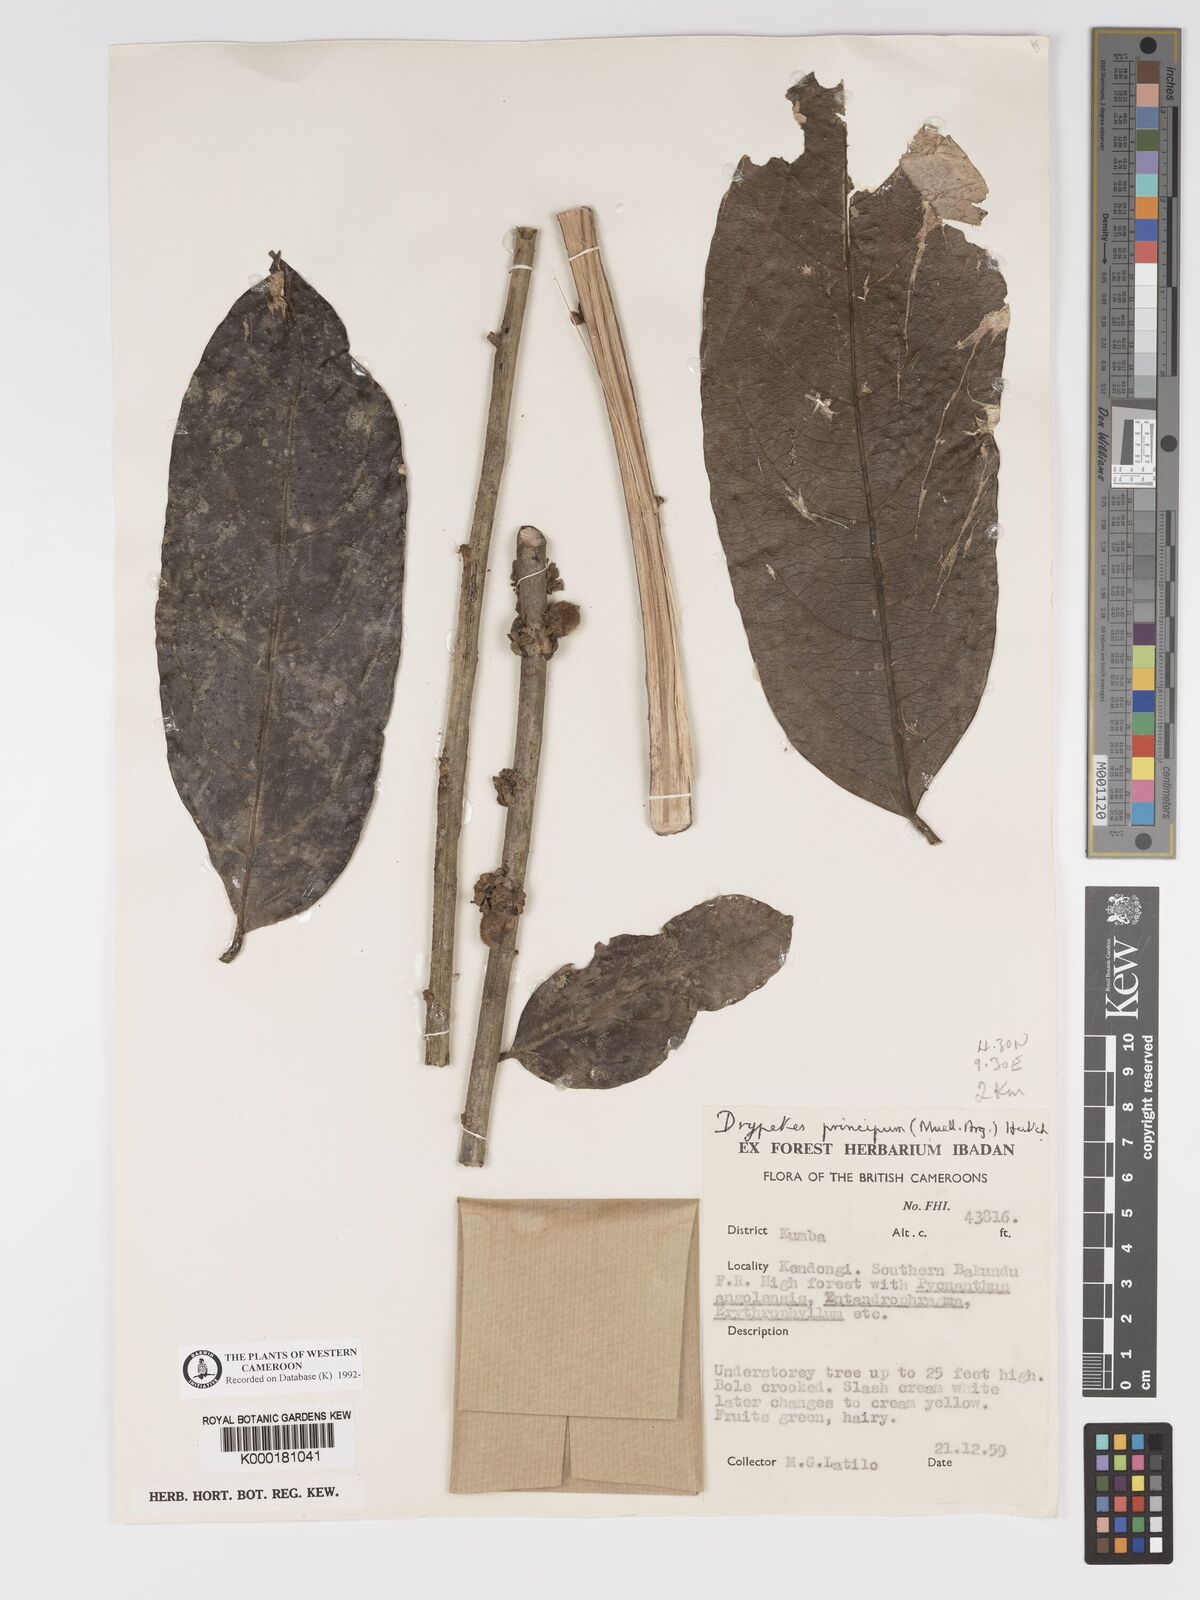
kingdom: Plantae
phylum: Tracheophyta
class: Magnoliopsida
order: Malpighiales
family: Putranjivaceae
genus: Drypetes
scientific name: Drypetes
